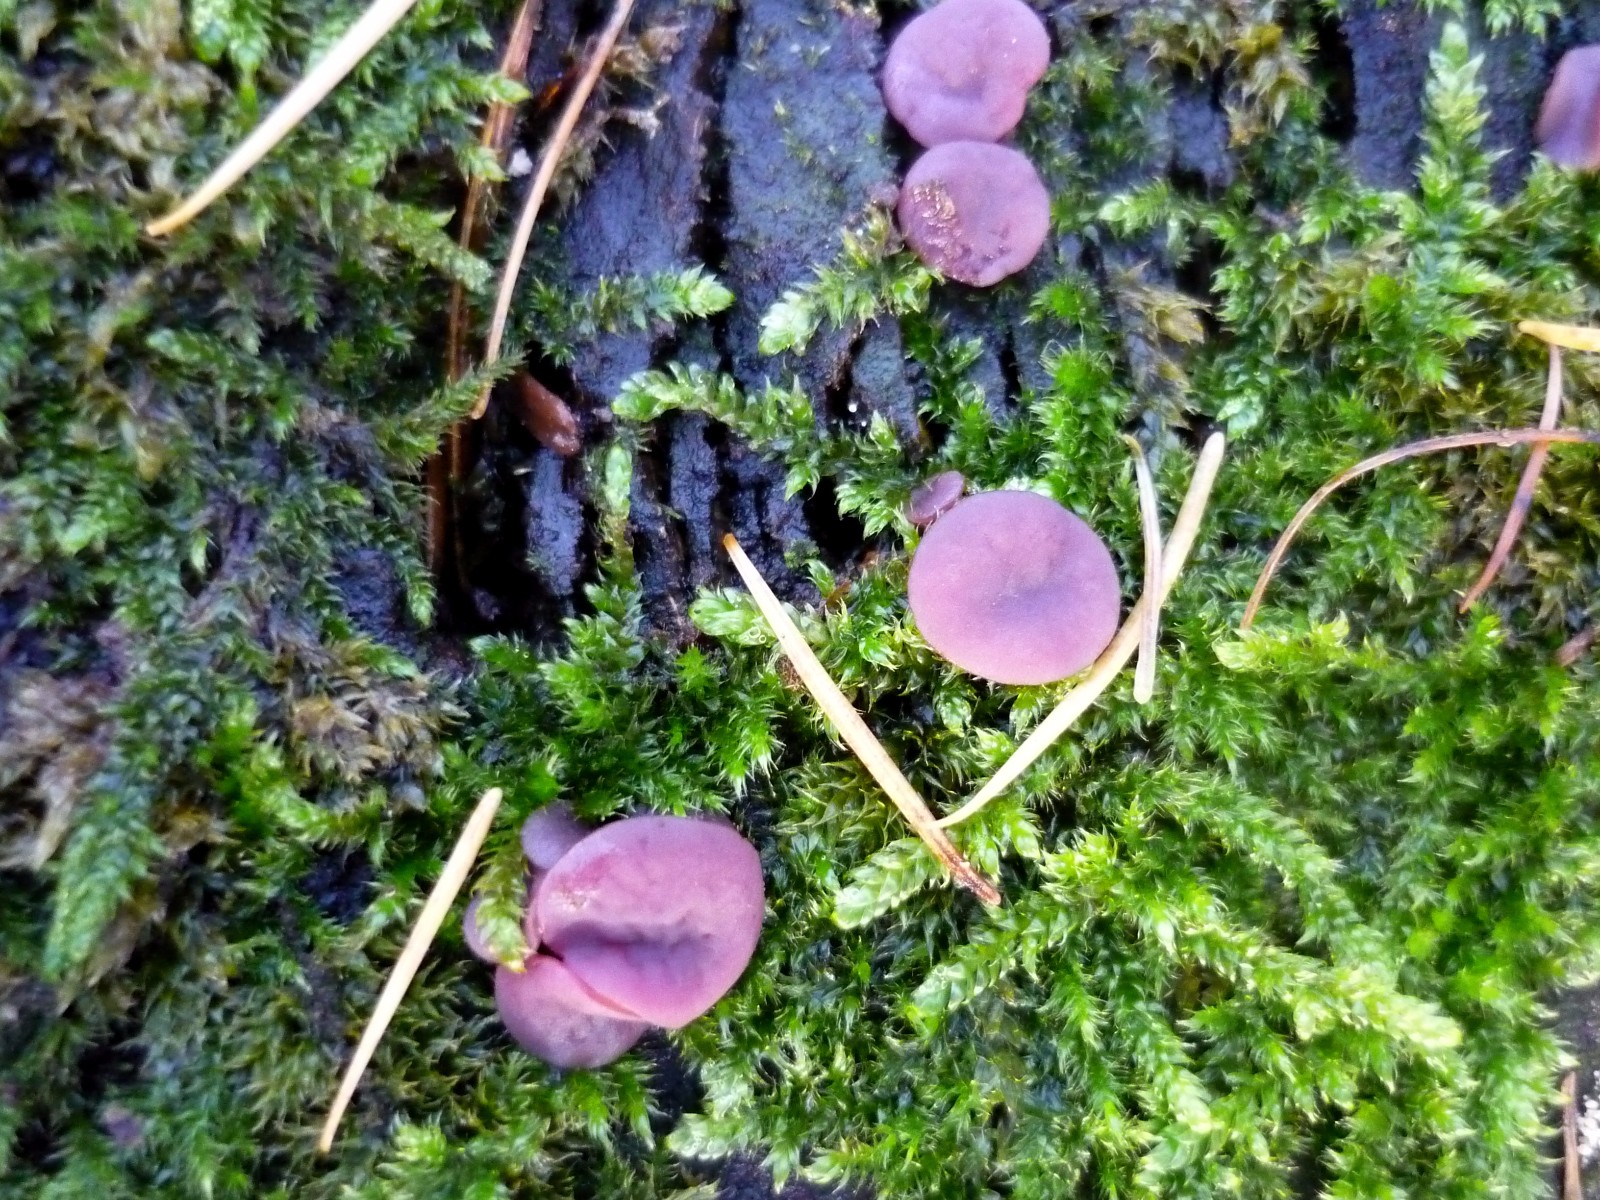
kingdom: Fungi
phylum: Ascomycota
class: Leotiomycetes
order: Helotiales
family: Gelatinodiscaceae
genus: Ascocoryne
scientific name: Ascocoryne cylichnium
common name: stor sejskive
